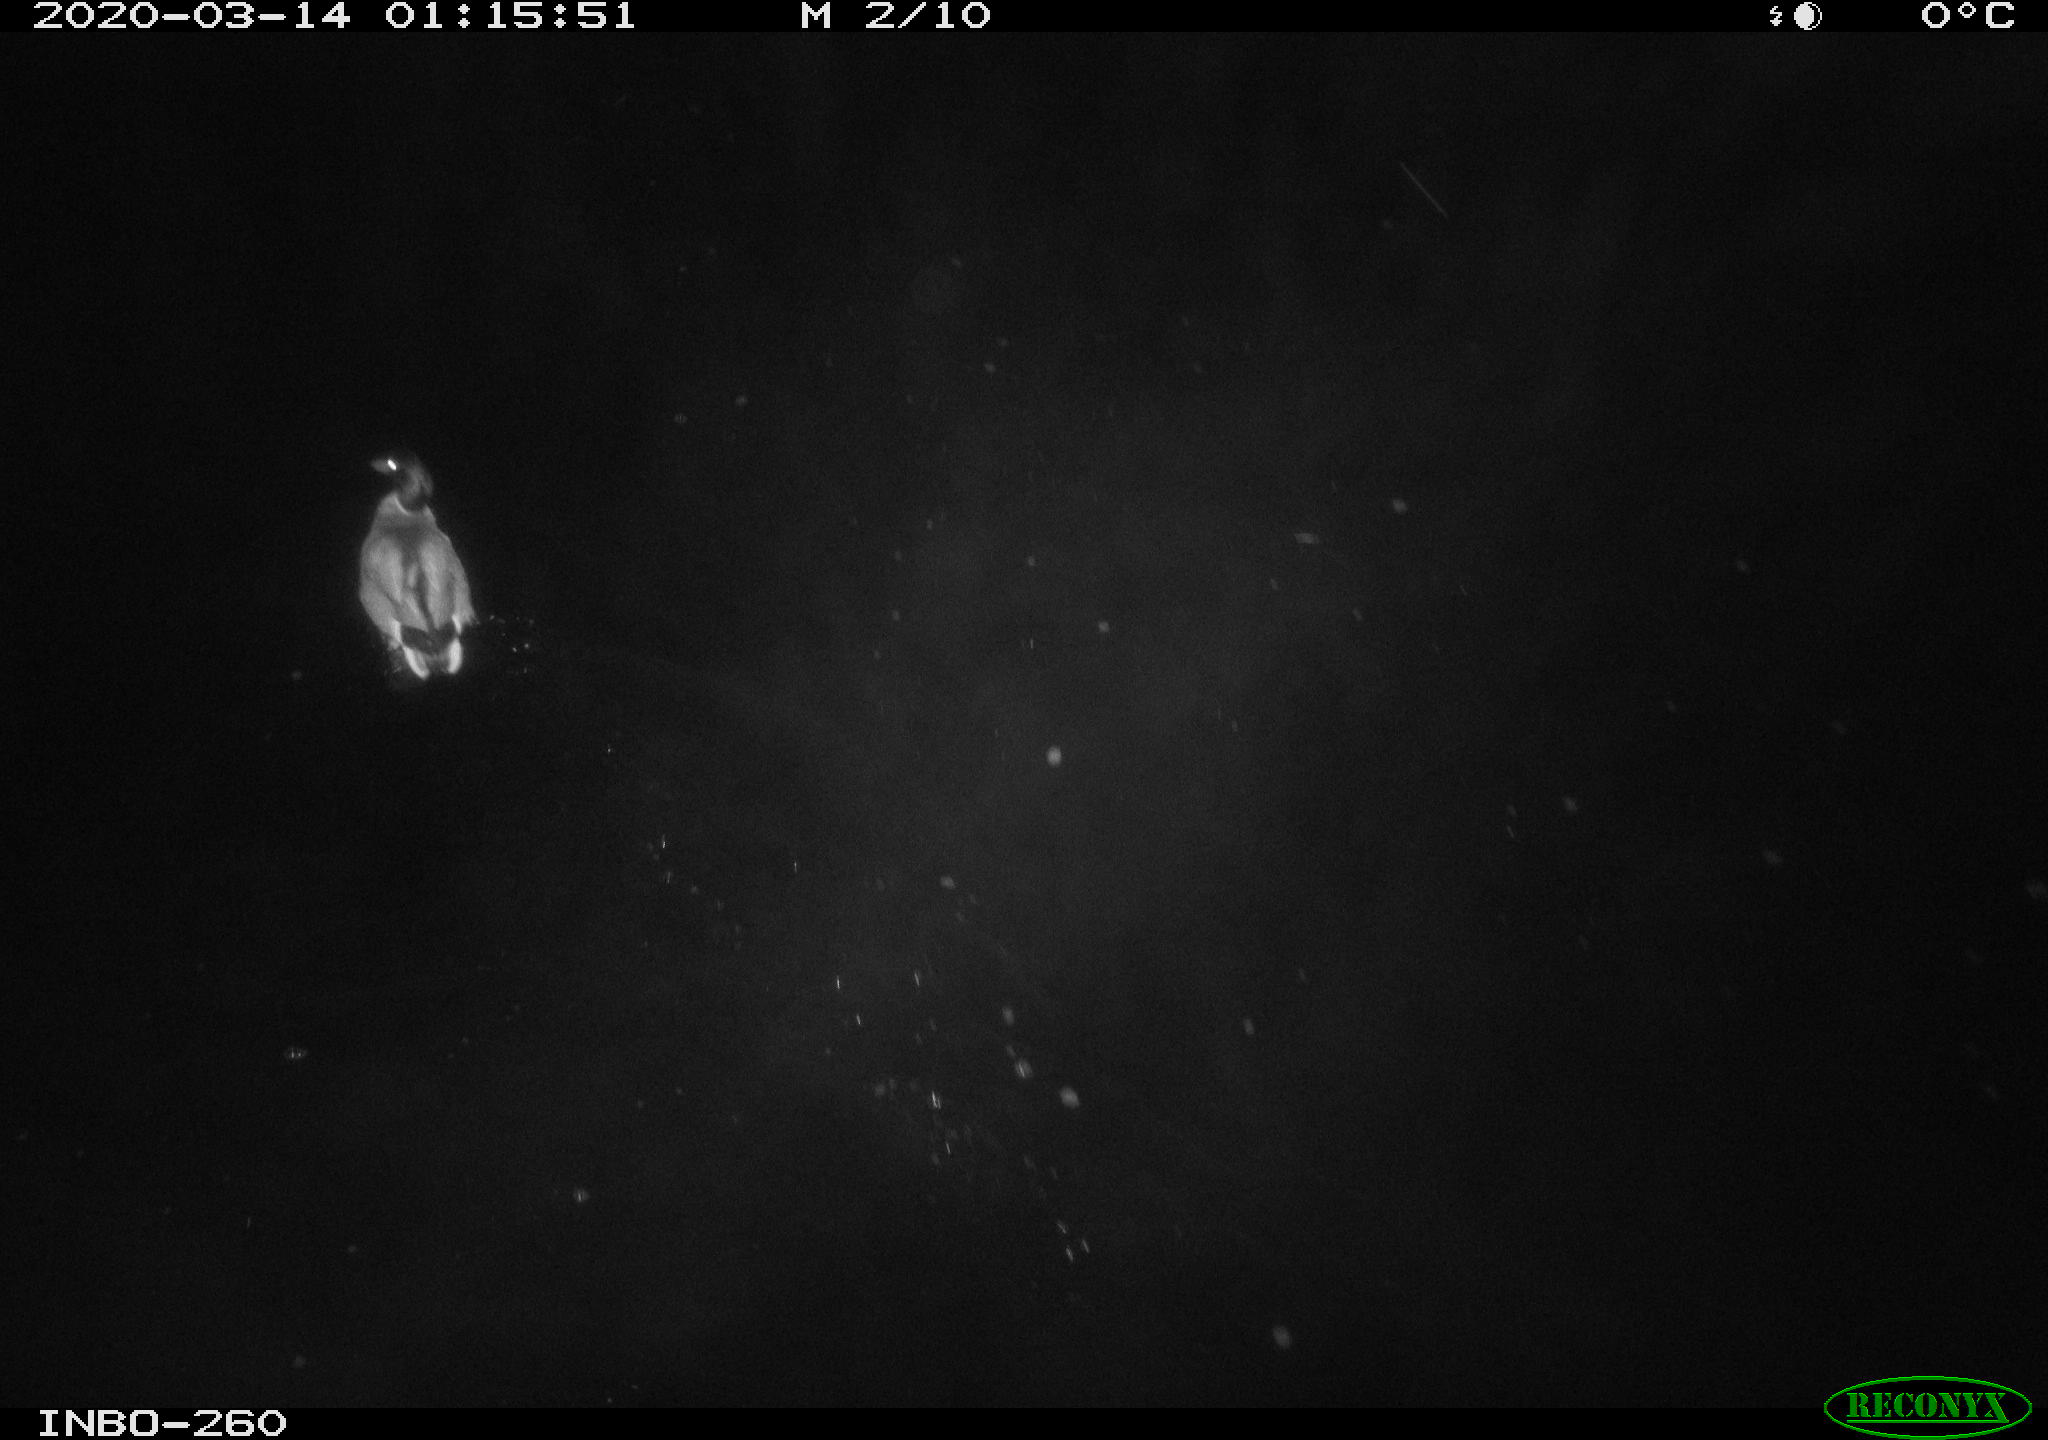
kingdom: Animalia
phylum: Chordata
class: Aves
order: Anseriformes
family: Anatidae
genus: Anas
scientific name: Anas platyrhynchos
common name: Mallard
